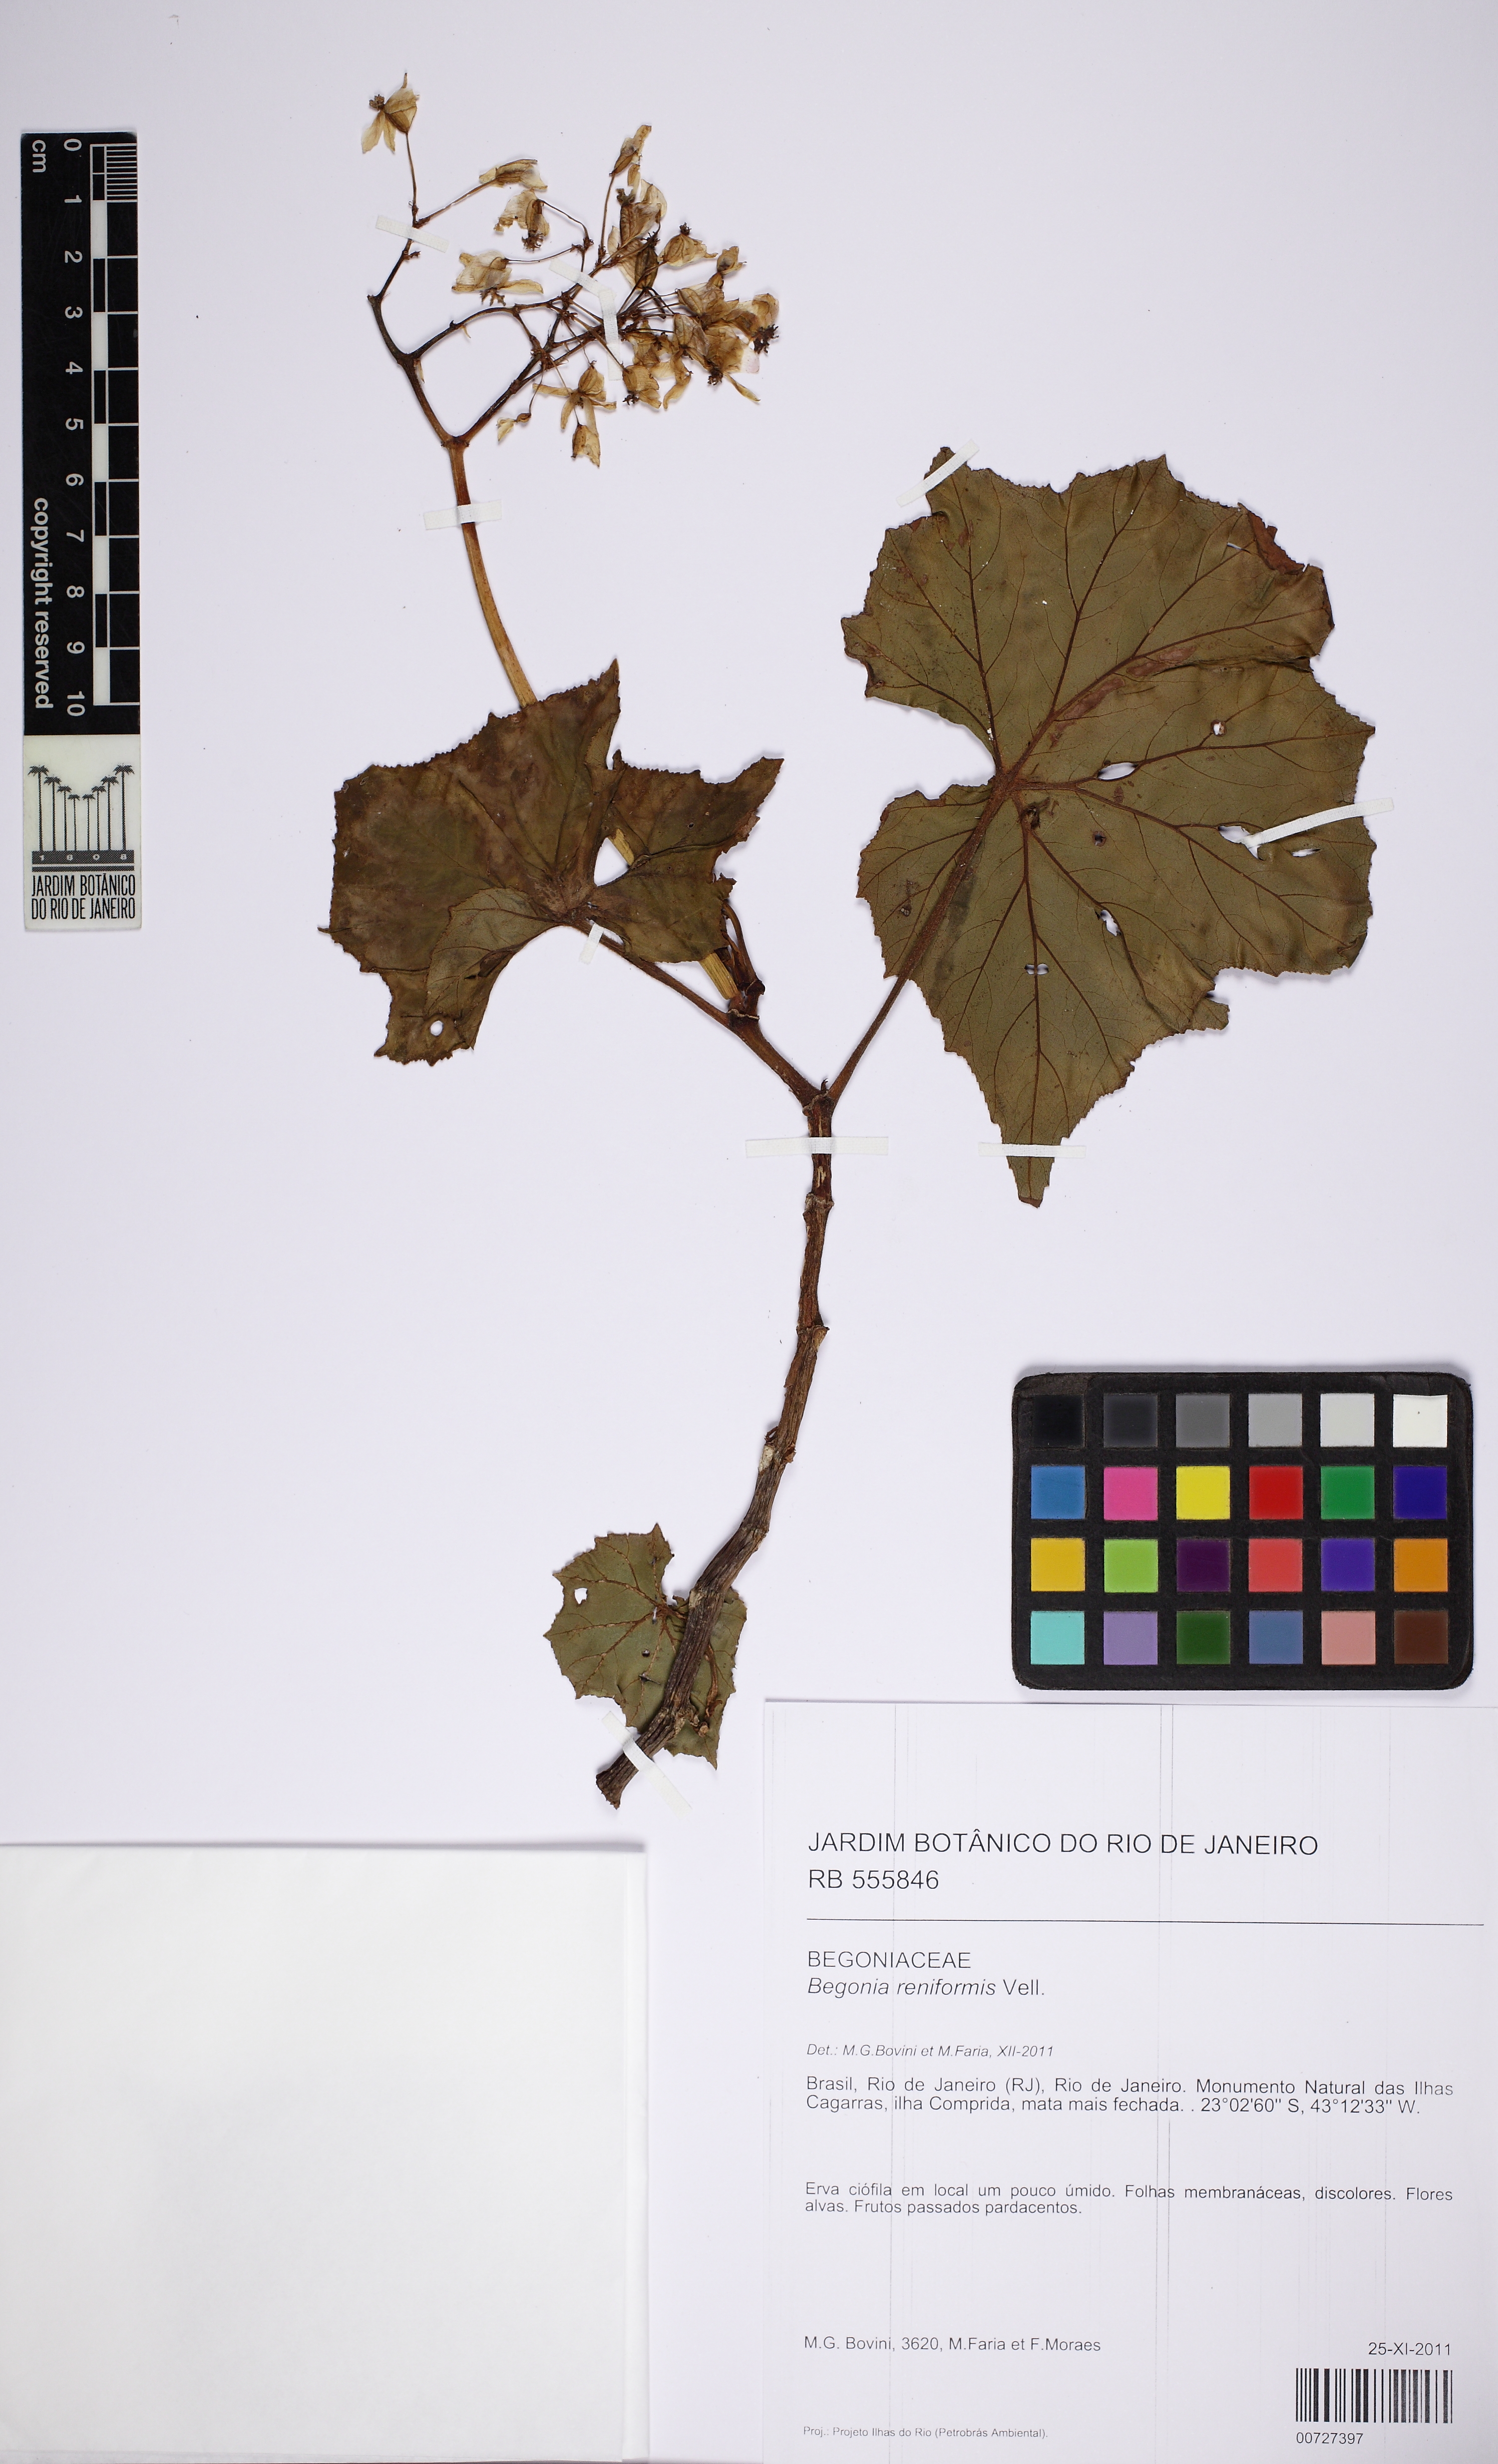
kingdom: Plantae
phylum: Tracheophyta
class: Magnoliopsida
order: Cucurbitales
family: Begoniaceae
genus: Begonia
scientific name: Begonia reniformis
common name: Grapeleaf begonia
